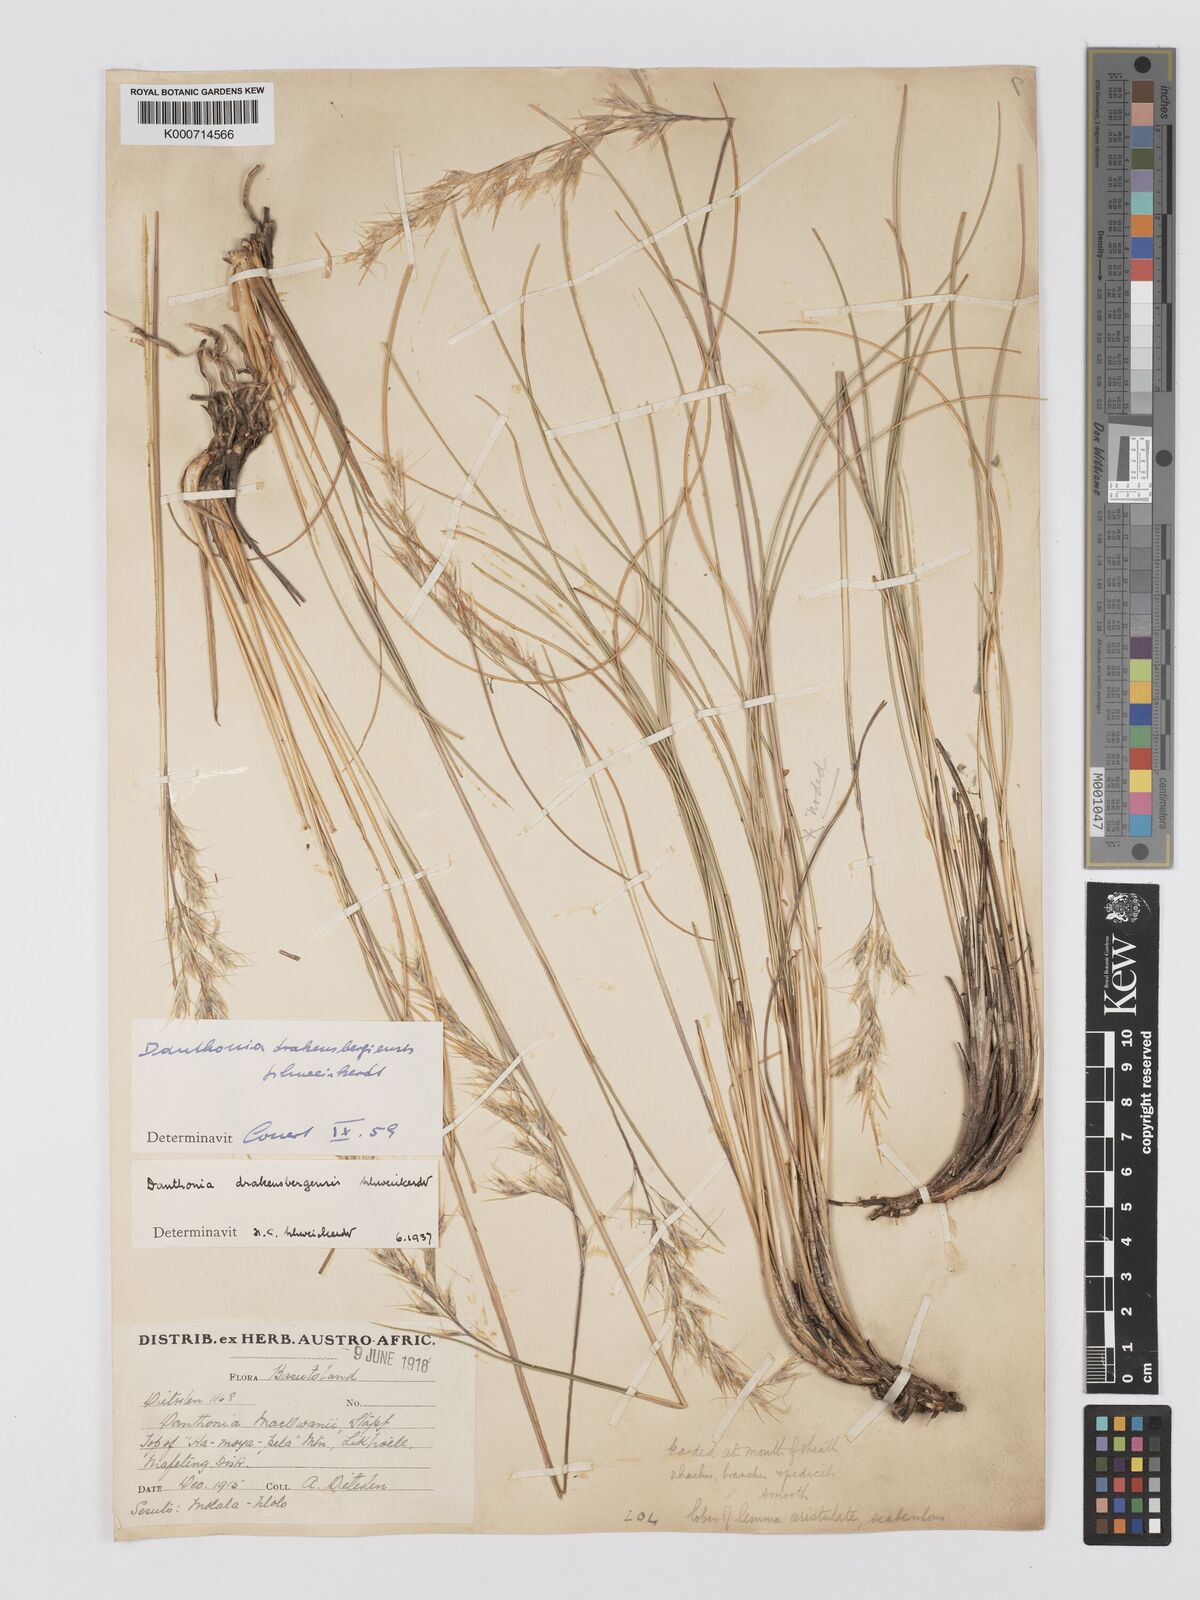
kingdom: Plantae
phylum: Tracheophyta
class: Liliopsida
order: Poales
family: Poaceae
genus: Rytidosperma
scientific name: Rytidosperma
